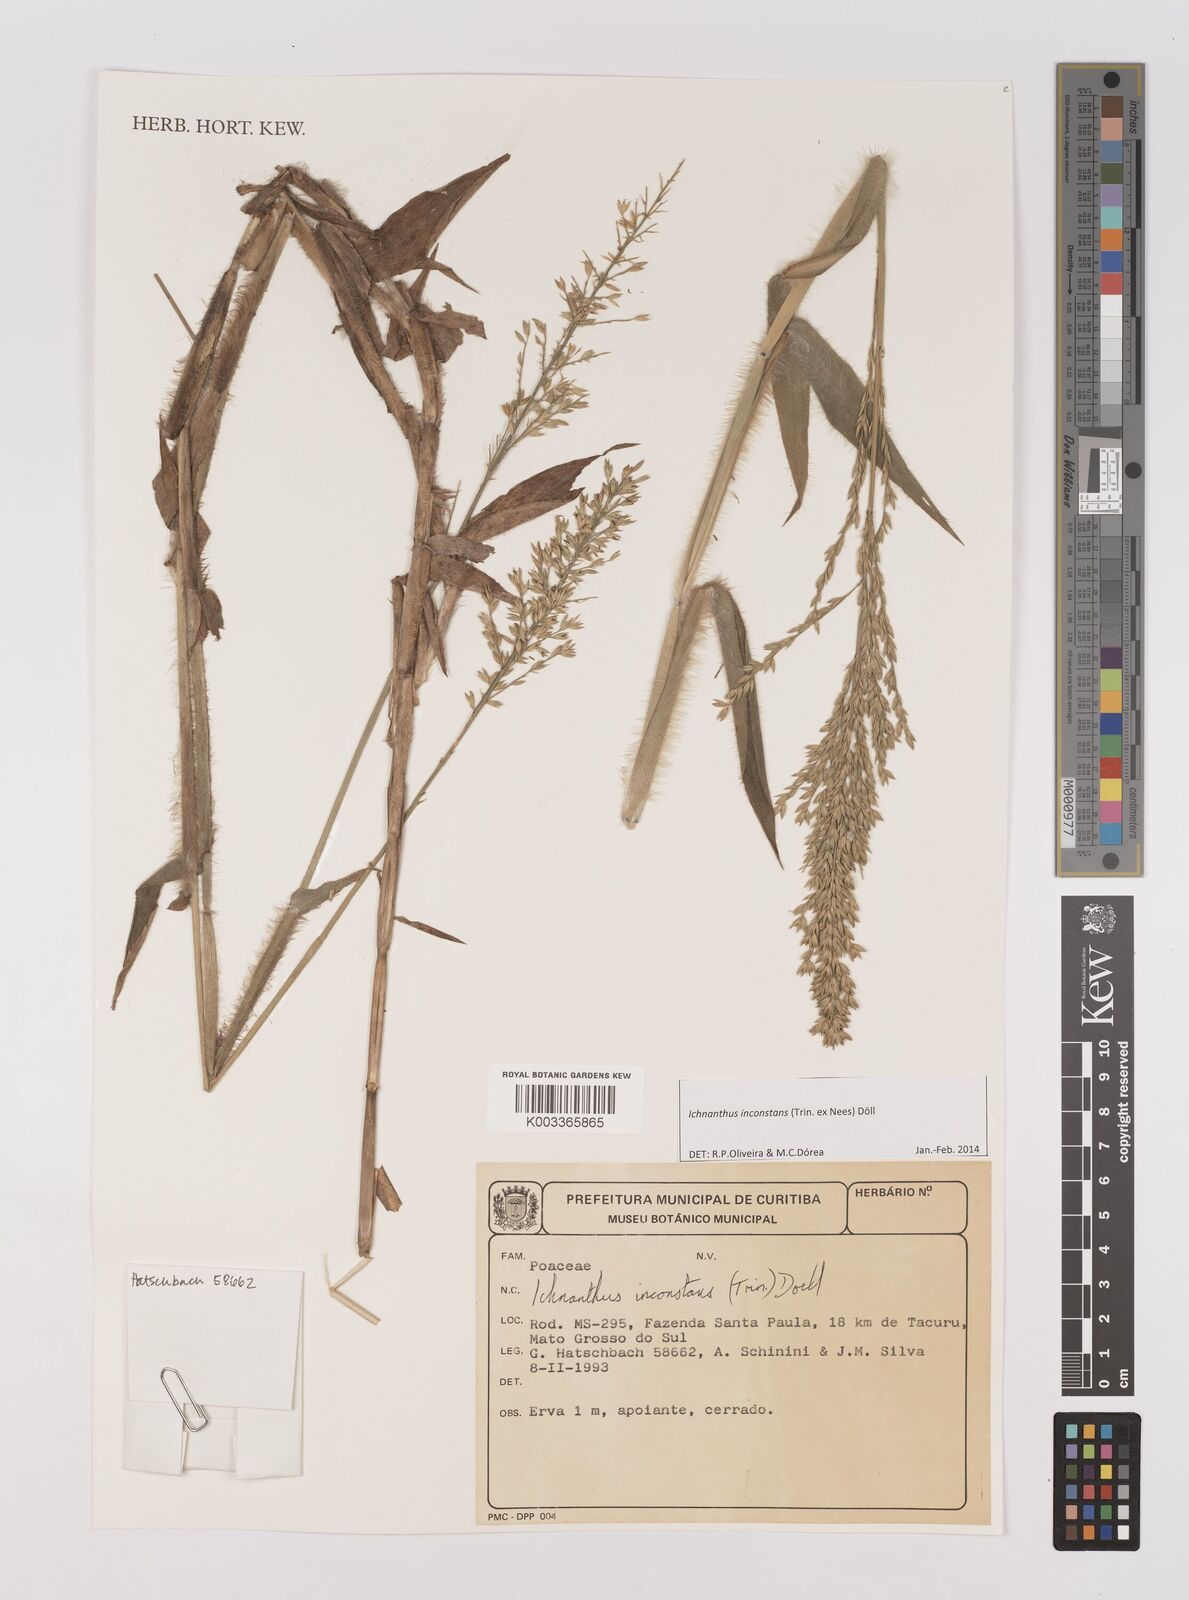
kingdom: Plantae
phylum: Tracheophyta
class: Liliopsida
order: Poales
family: Poaceae
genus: Ichnanthus
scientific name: Ichnanthus inconstans
